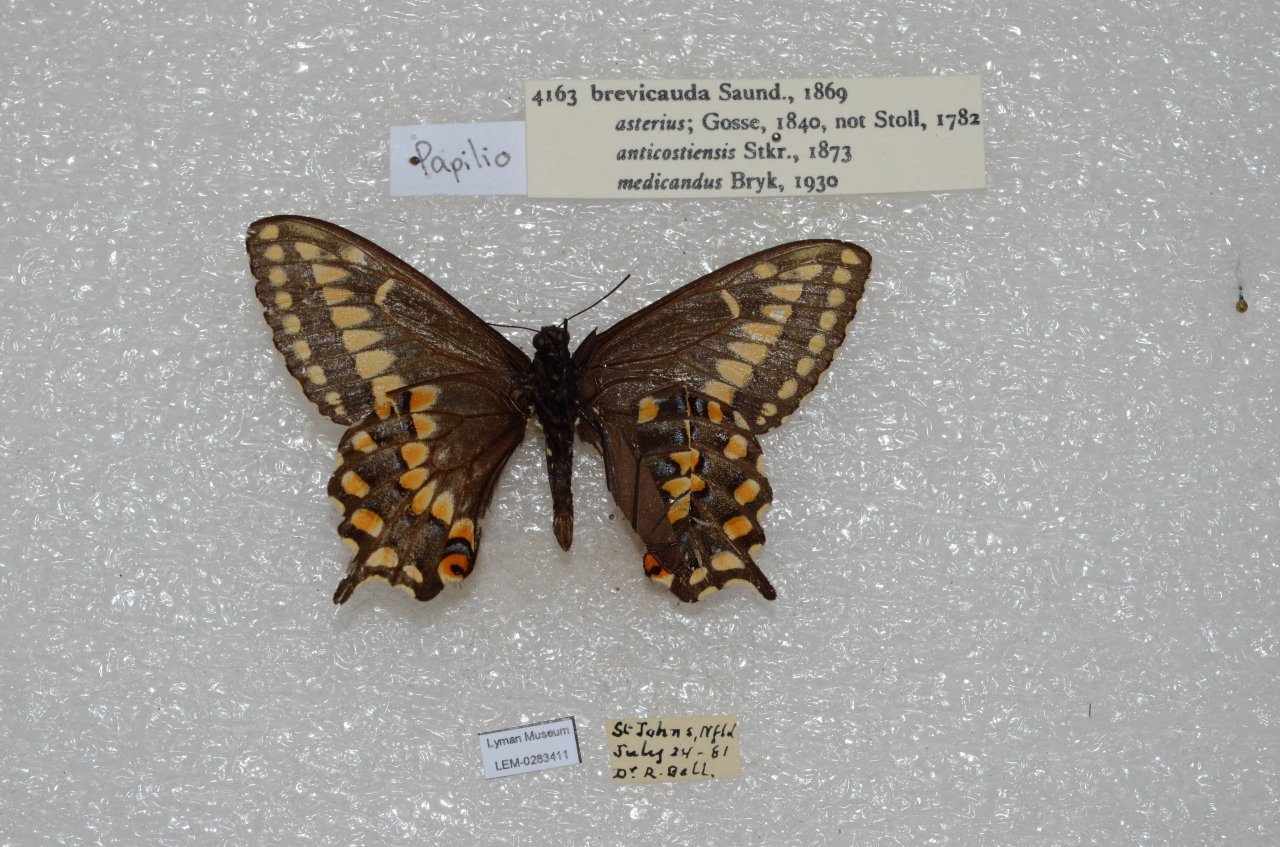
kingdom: Animalia
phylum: Arthropoda
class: Insecta
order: Lepidoptera
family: Papilionidae
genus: Papilio
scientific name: Papilio brevicauda
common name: Short-tailed Swallowtail
